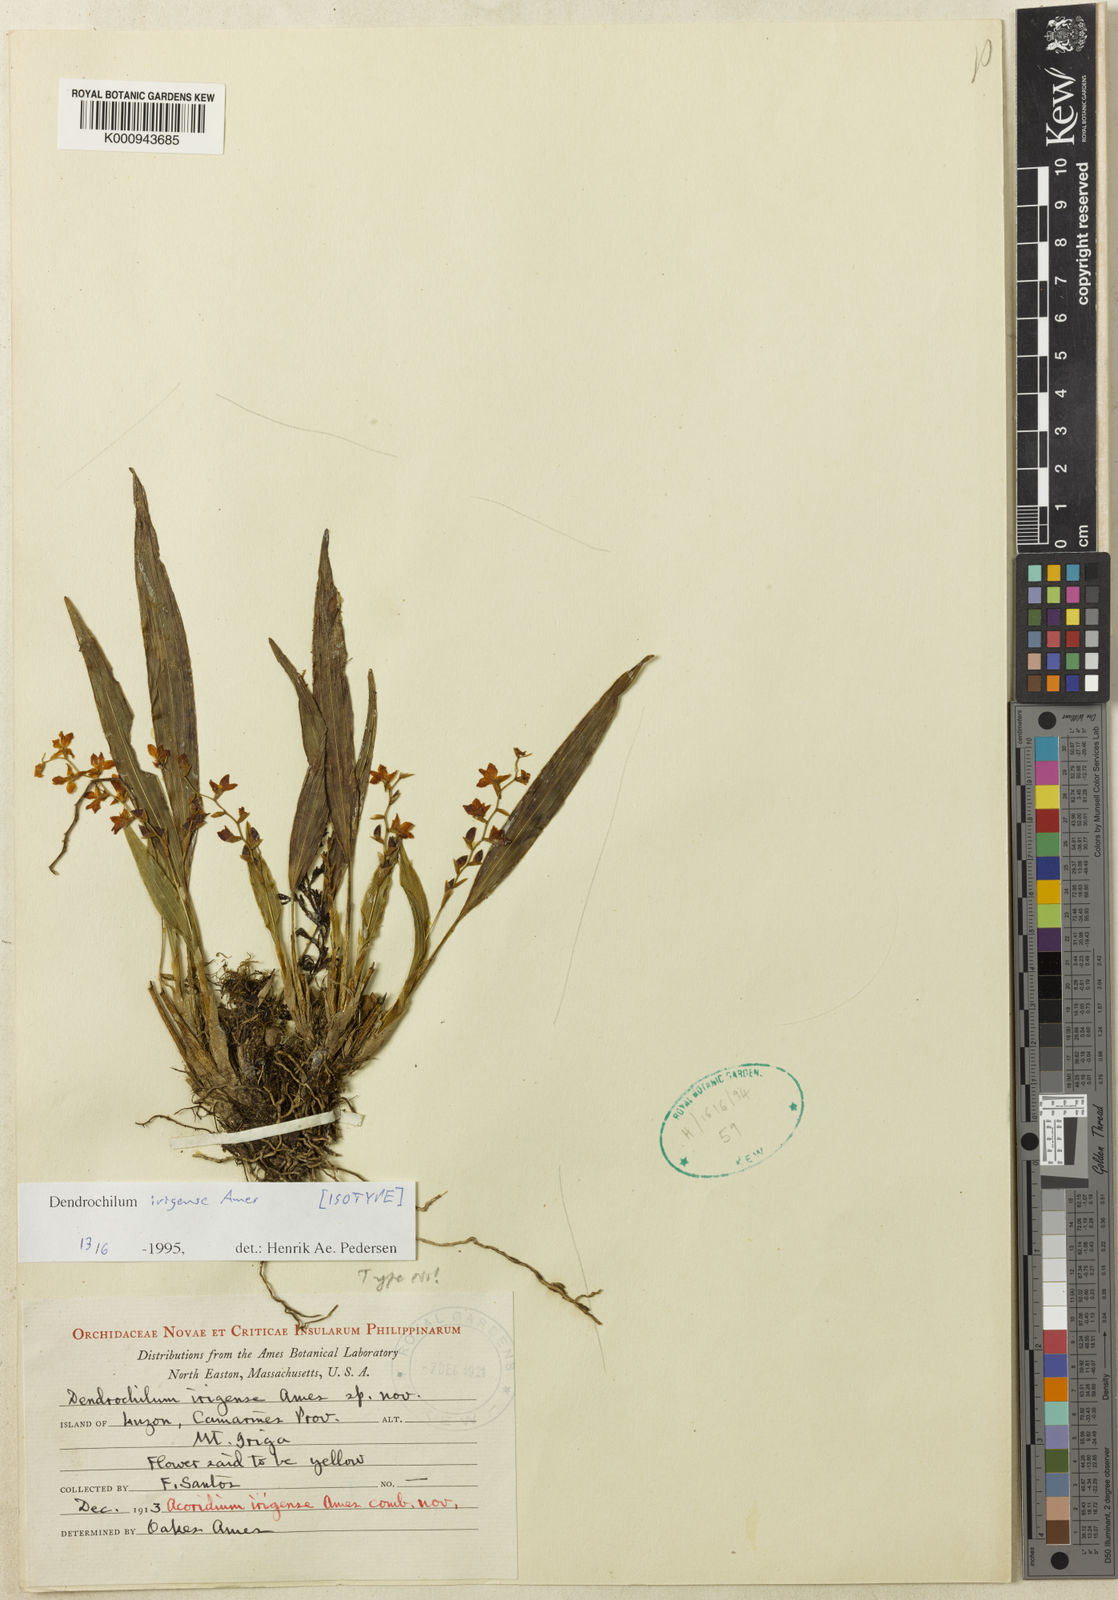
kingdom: Plantae
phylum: Tracheophyta
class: Liliopsida
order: Asparagales
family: Orchidaceae
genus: Coelogyne
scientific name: Coelogyne irigensis
